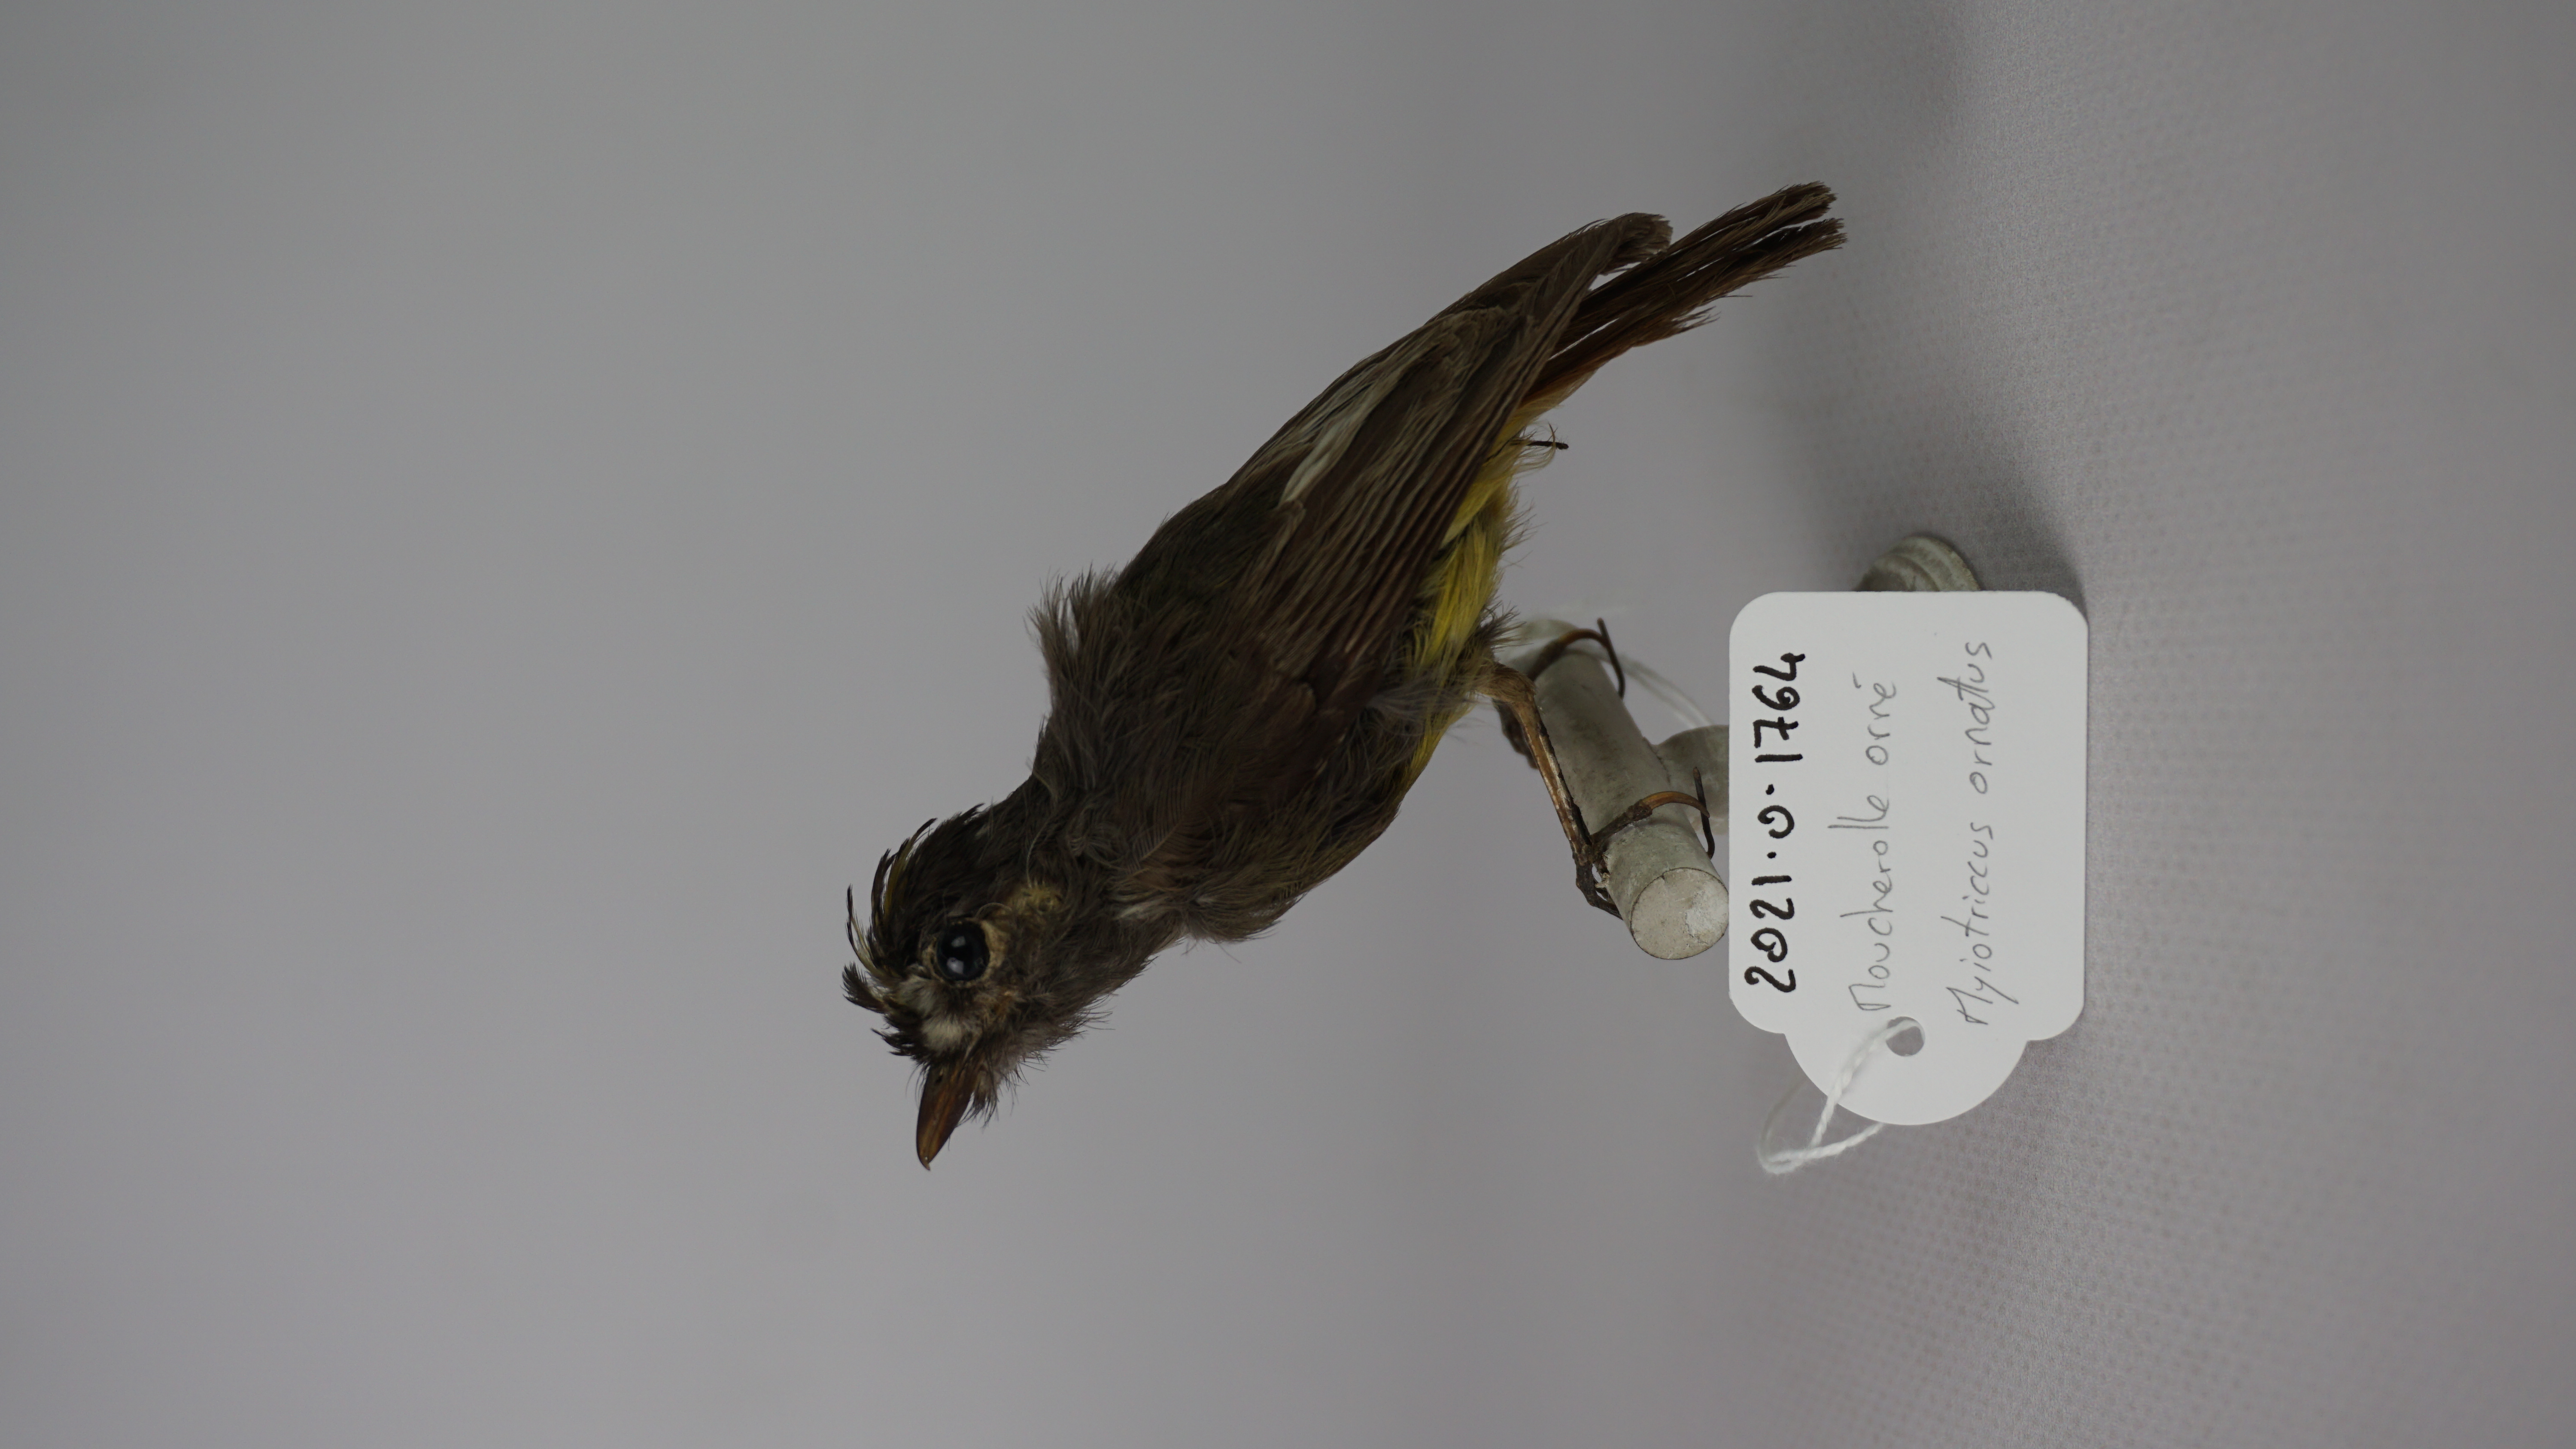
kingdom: Animalia
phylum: Chordata
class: Aves
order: Passeriformes
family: Tyrannidae
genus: Myiotriccus
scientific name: Myiotriccus ornatus
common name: Ornate flycatcher
